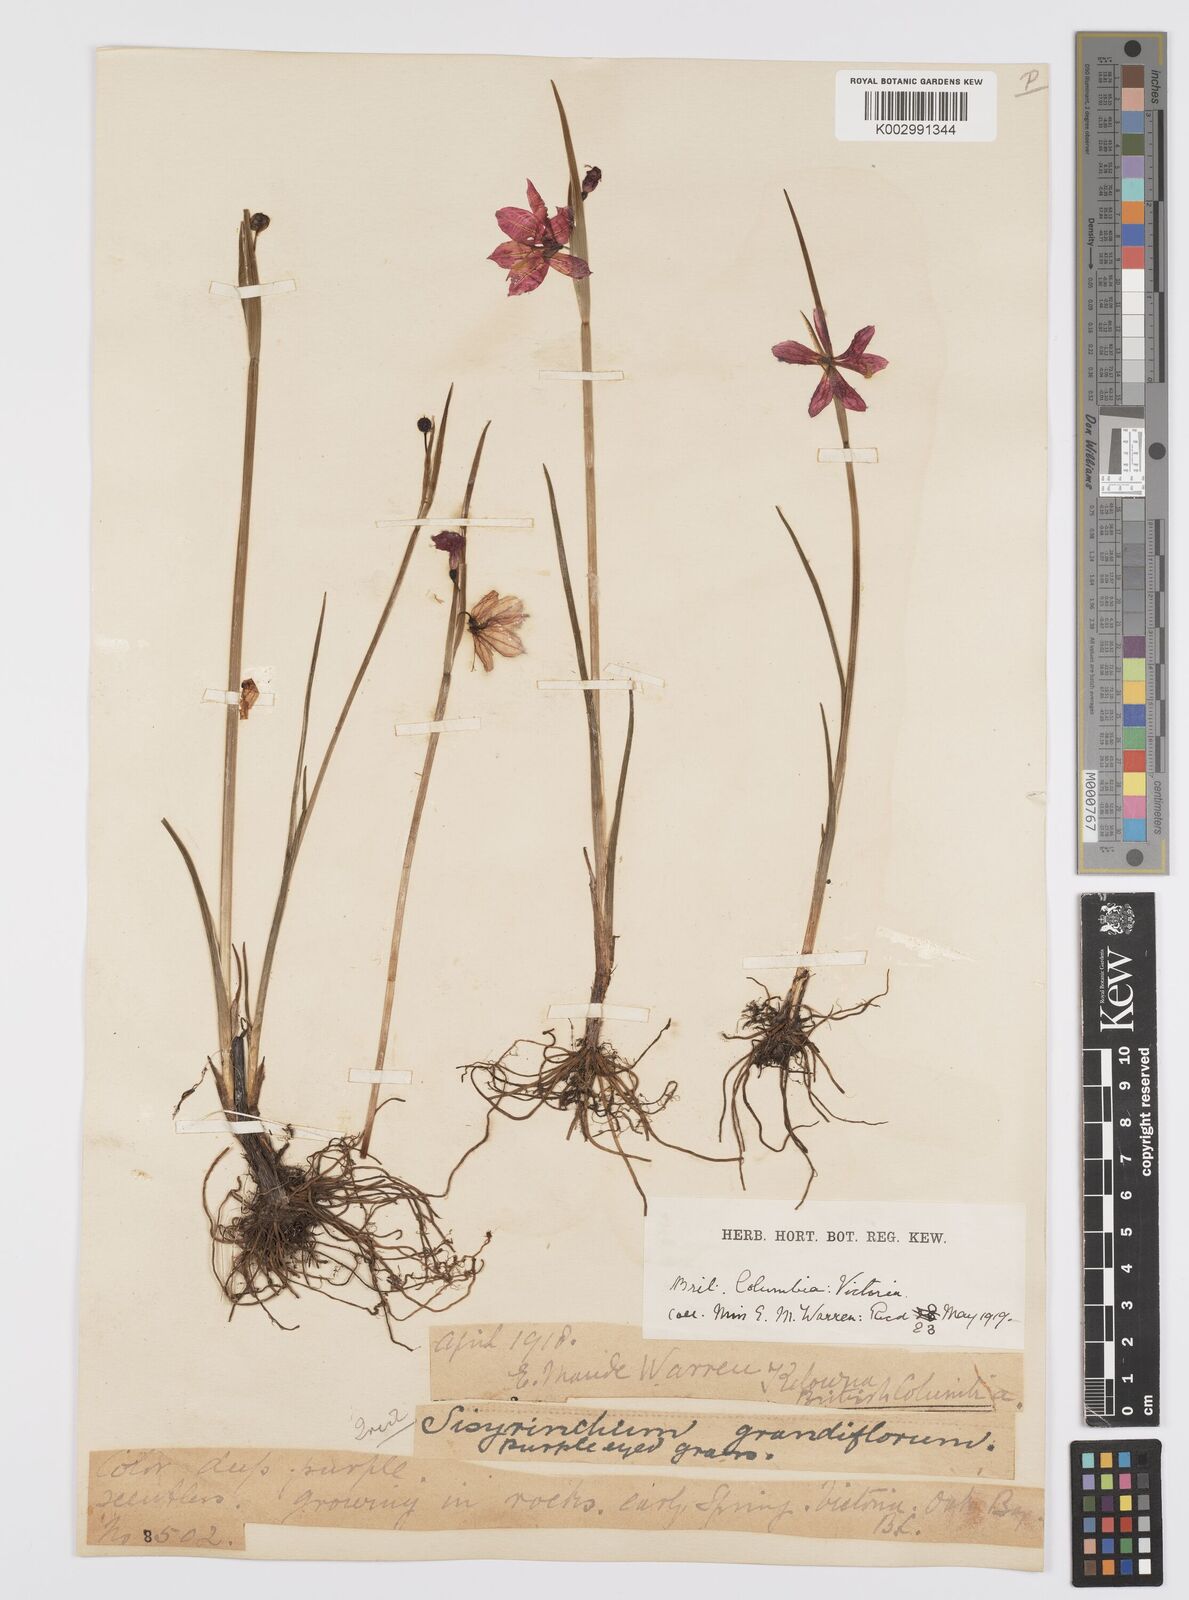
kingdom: Plantae
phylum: Tracheophyta
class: Liliopsida
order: Asparagales
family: Iridaceae
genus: Olsynium
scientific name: Olsynium douglasii
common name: Douglas' grasswidow
